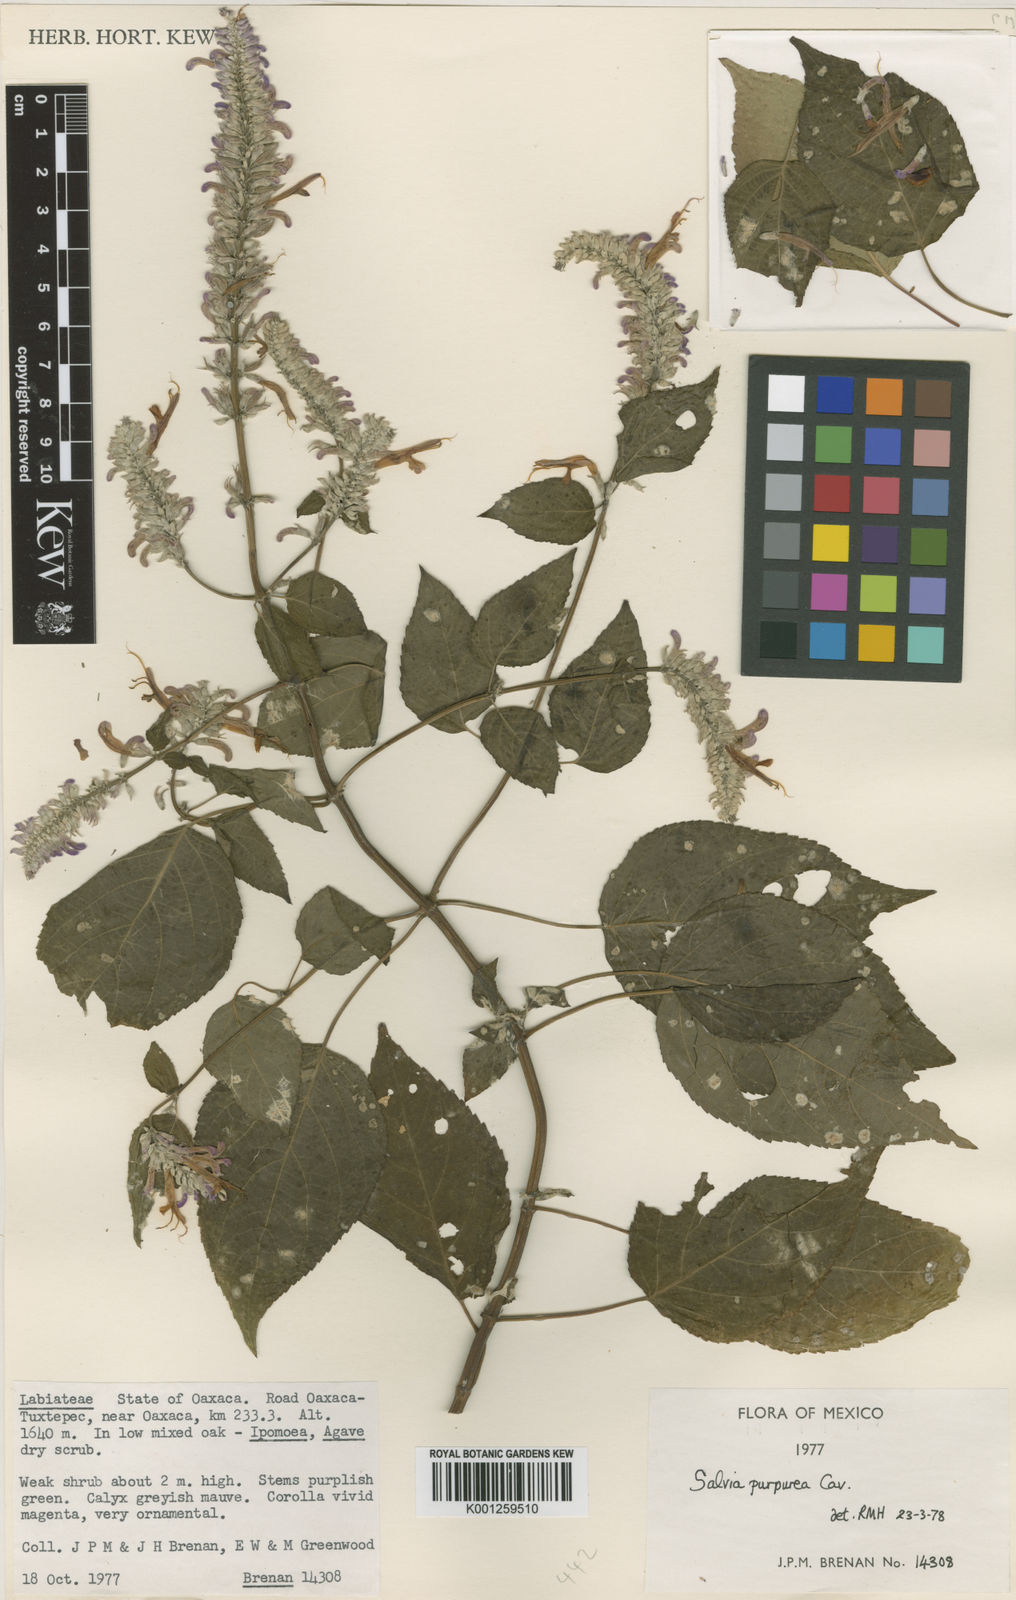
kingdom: Plantae
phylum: Tracheophyta
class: Magnoliopsida
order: Lamiales
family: Lamiaceae
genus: Salvia
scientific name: Salvia purpurea
